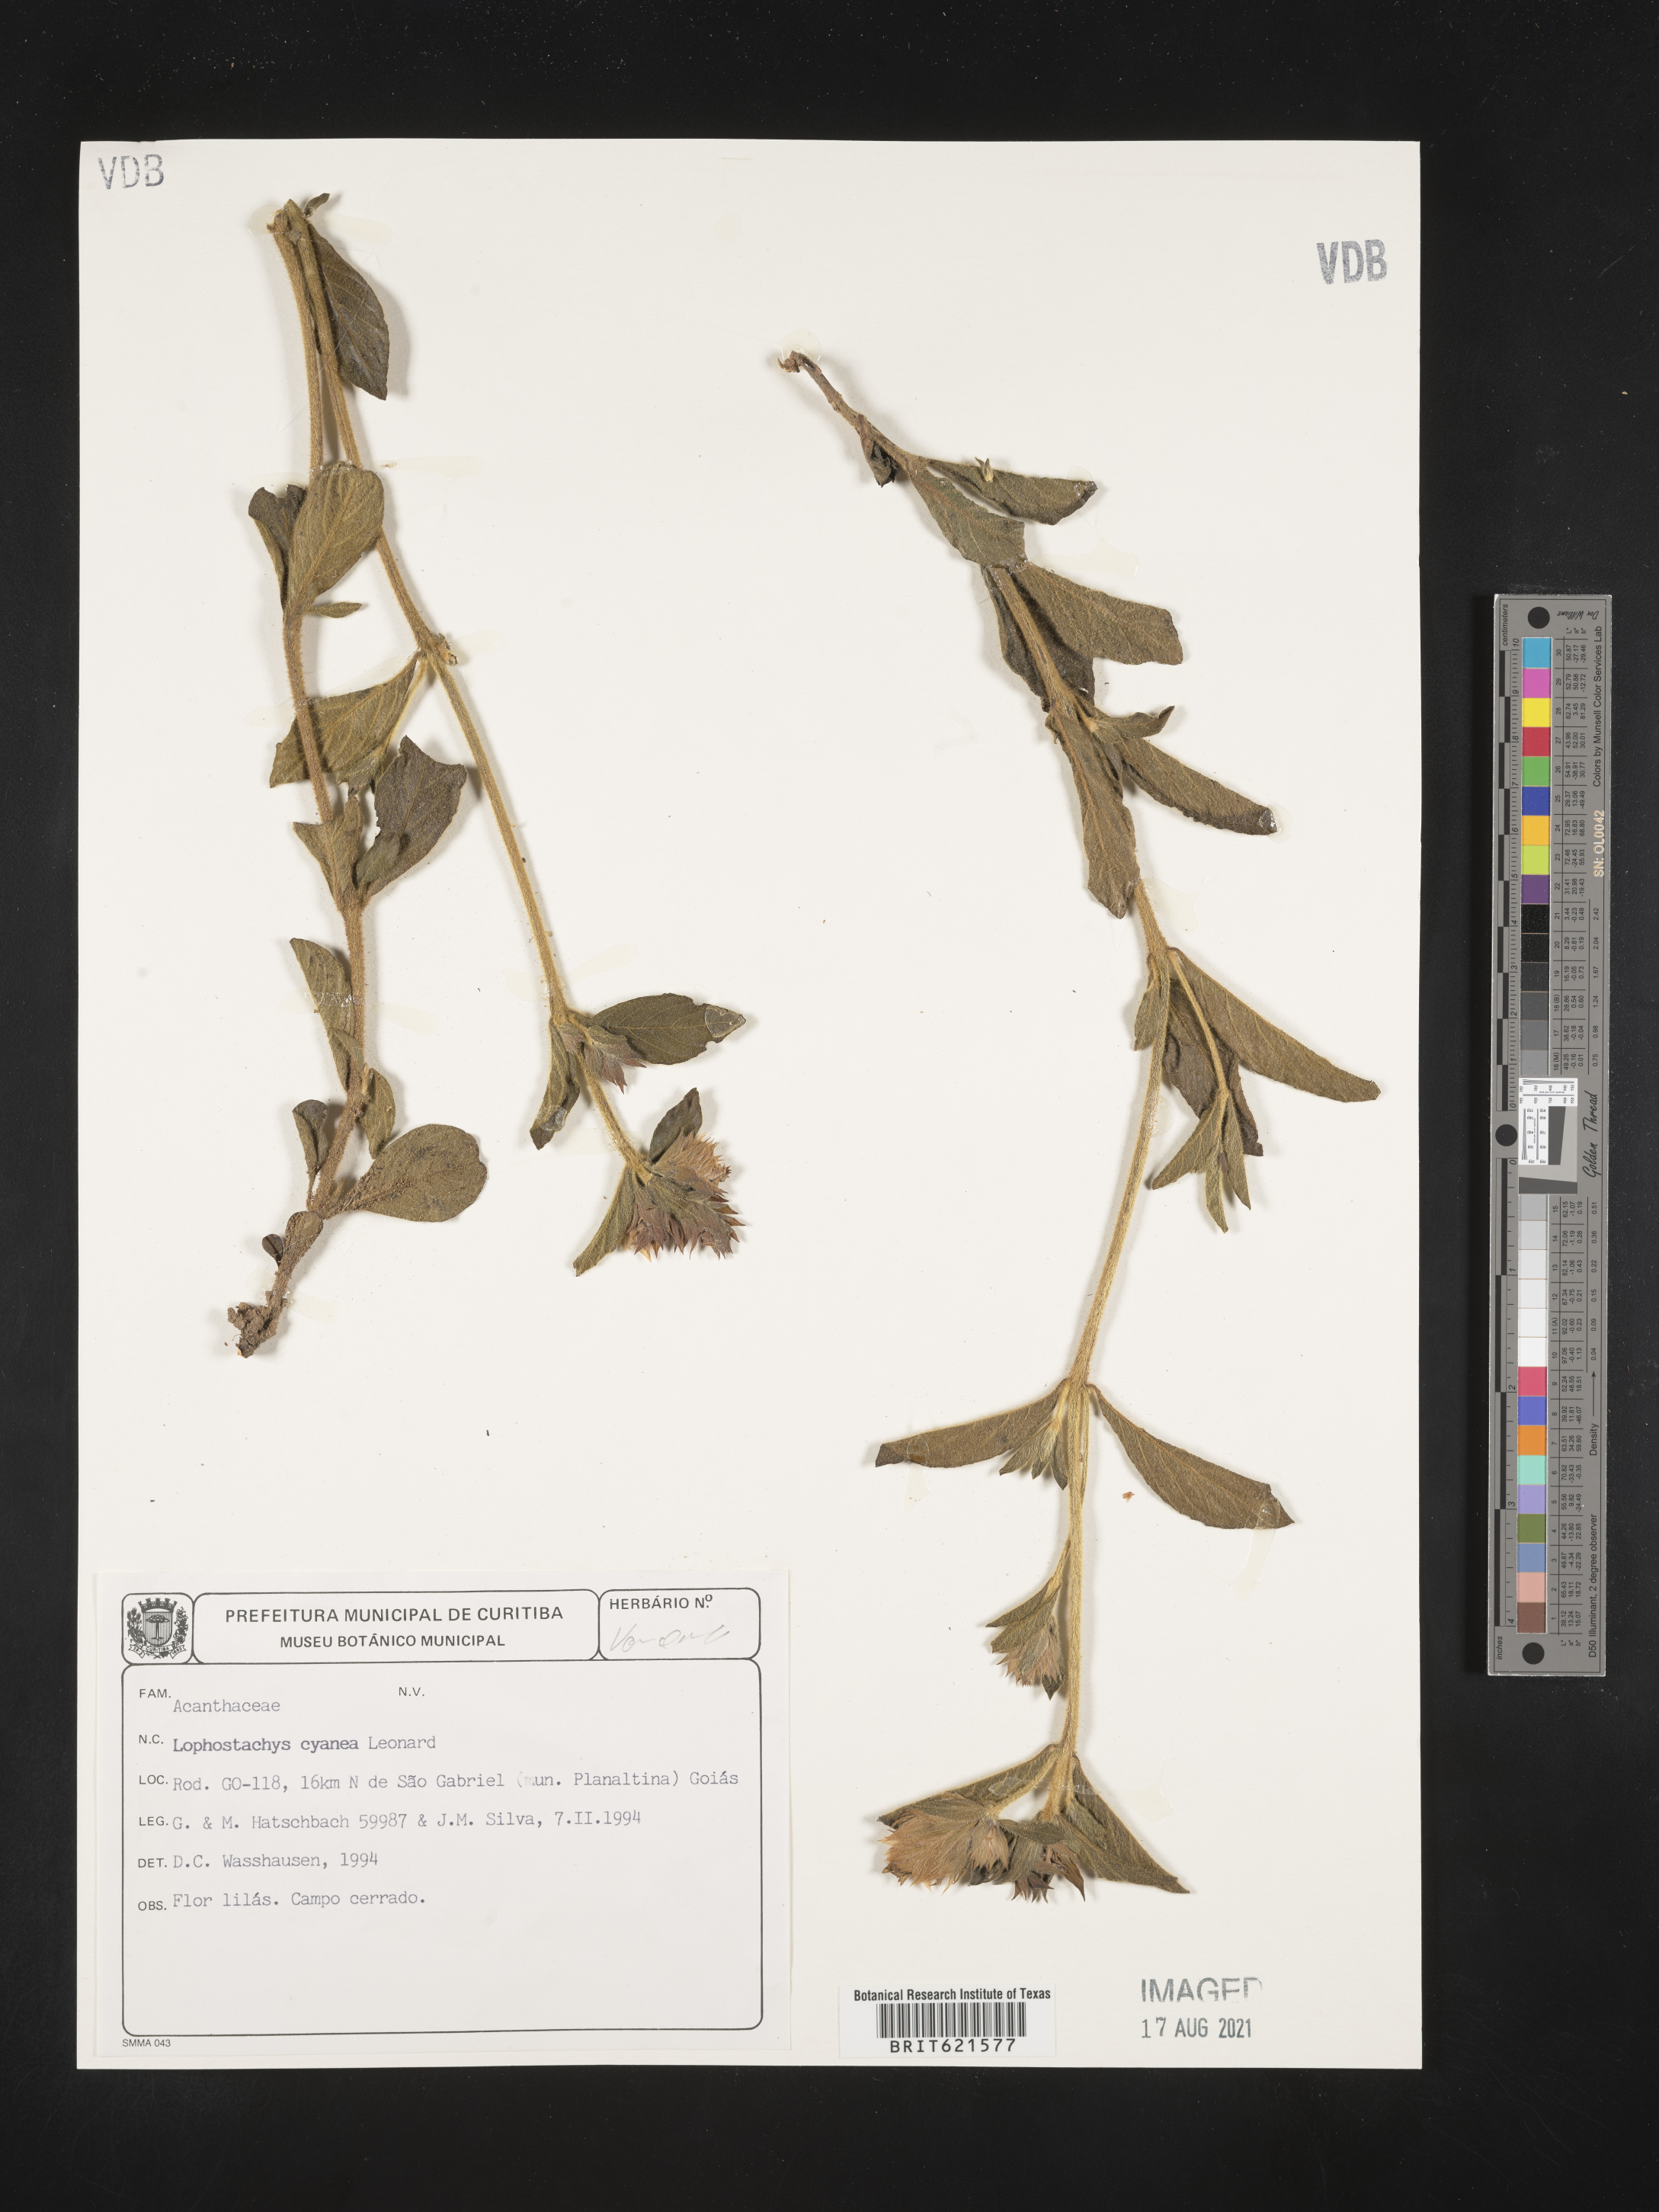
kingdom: Plantae
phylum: Tracheophyta
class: Magnoliopsida
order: Lamiales
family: Acanthaceae
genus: Lepidagathis
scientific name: Lepidagathis cyanea
